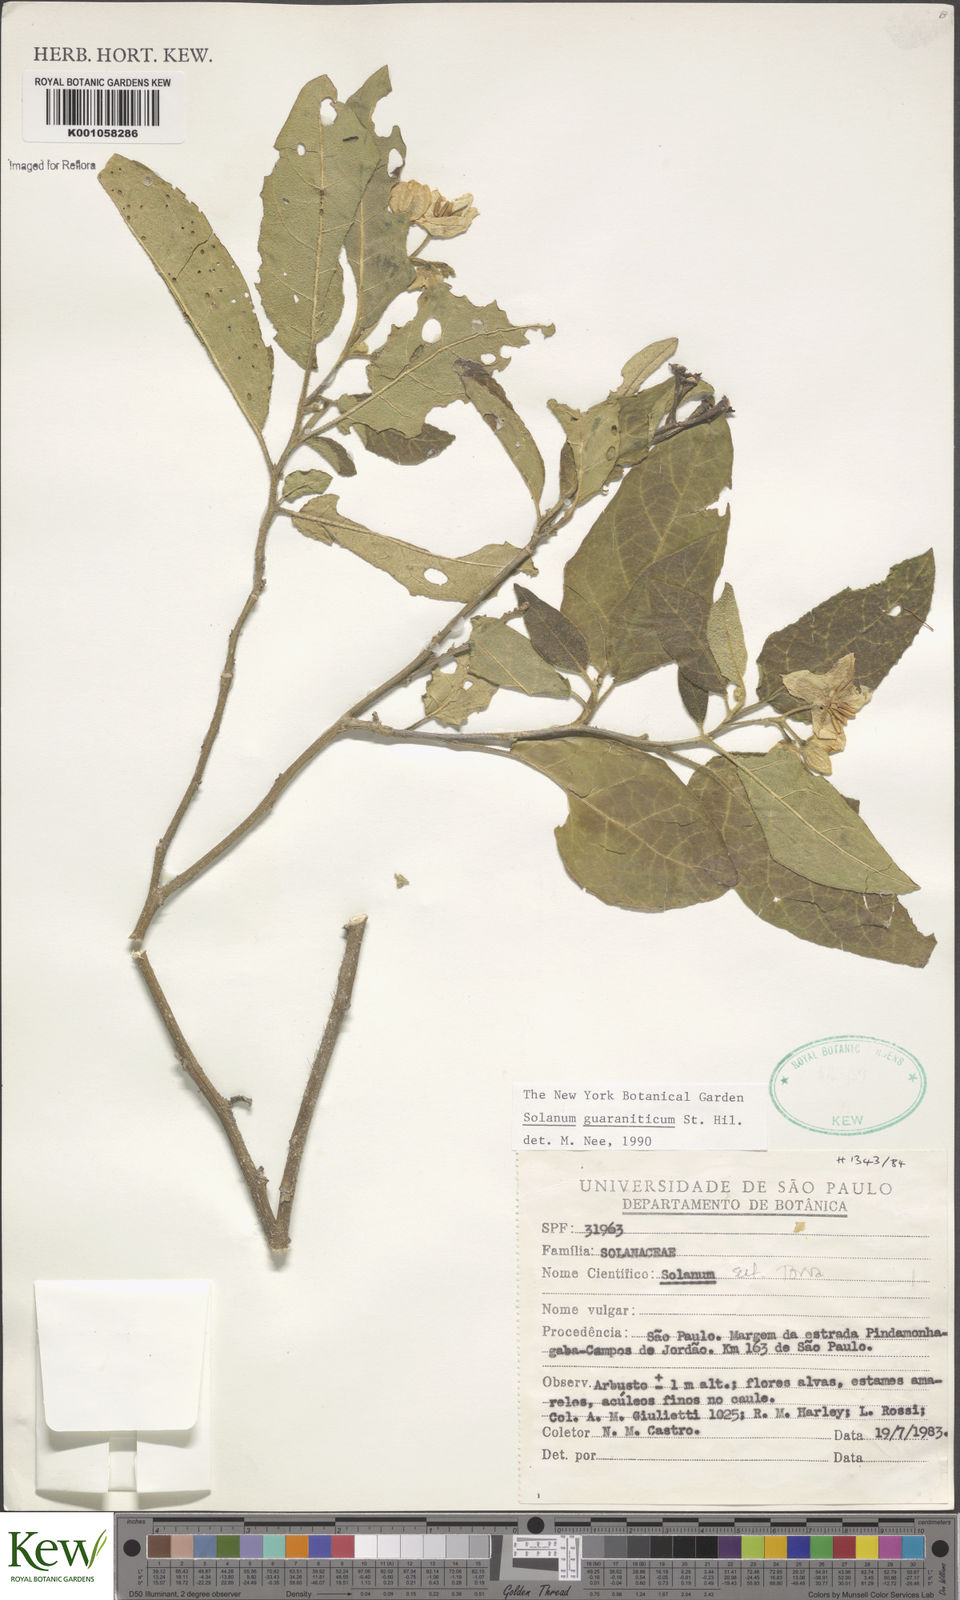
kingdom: Plantae
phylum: Tracheophyta
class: Magnoliopsida
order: Solanales
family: Solanaceae
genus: Solanum
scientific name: Solanum guaraniticum
